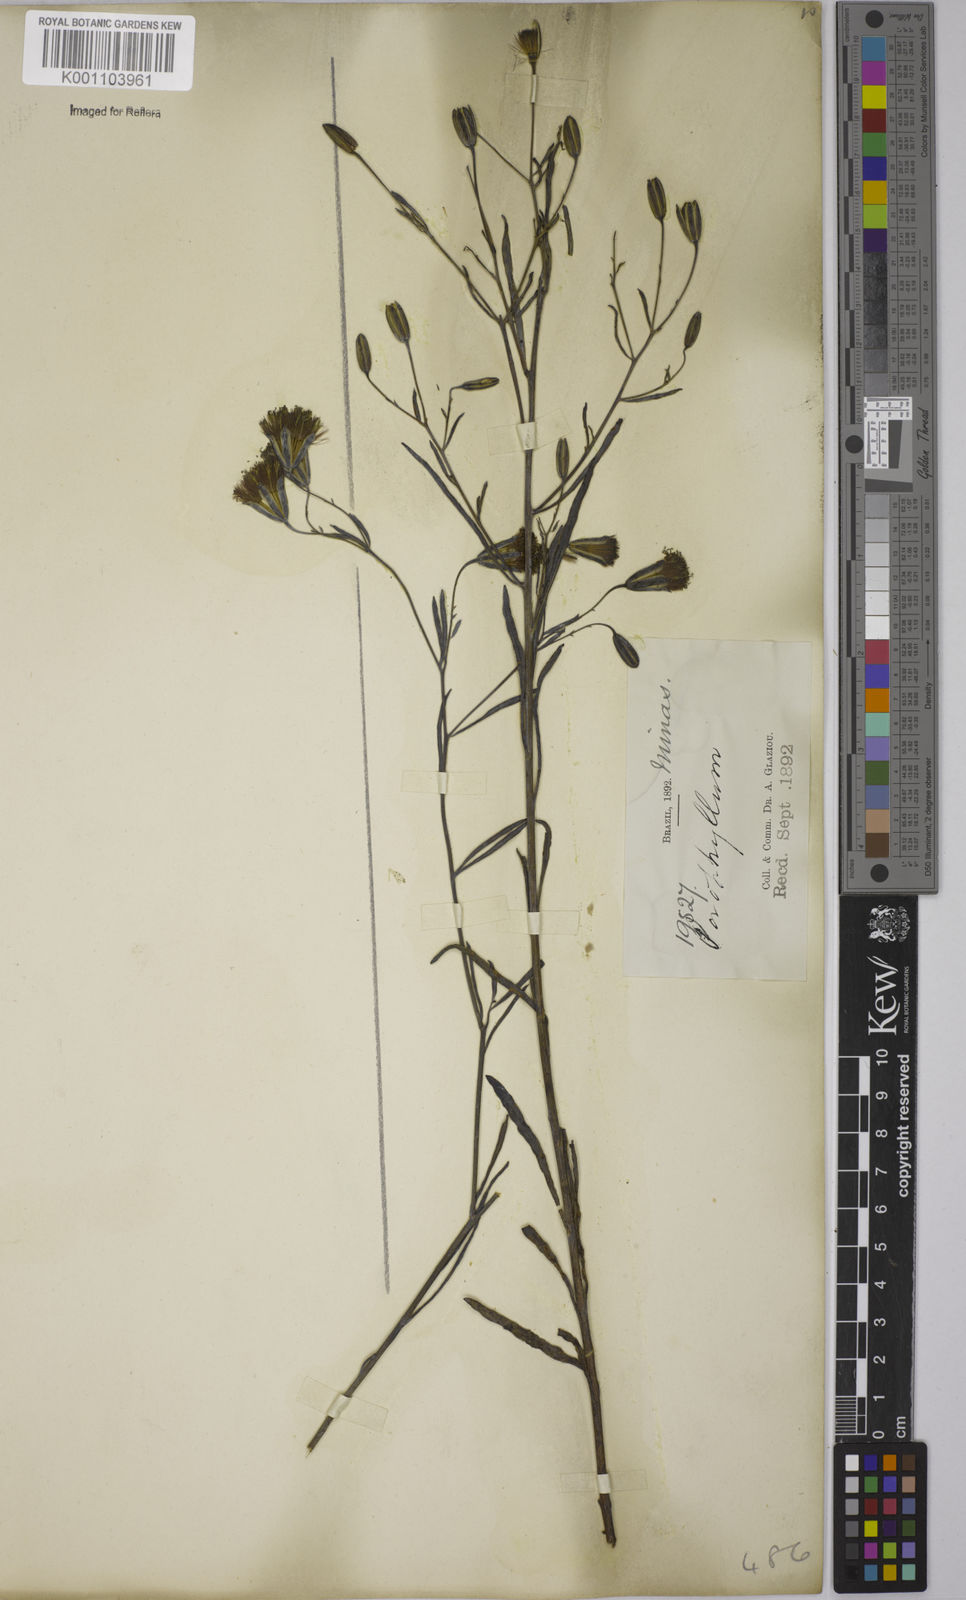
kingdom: Plantae
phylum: Tracheophyta
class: Magnoliopsida
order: Asterales
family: Asteraceae
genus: Porophyllum
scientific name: Porophyllum
